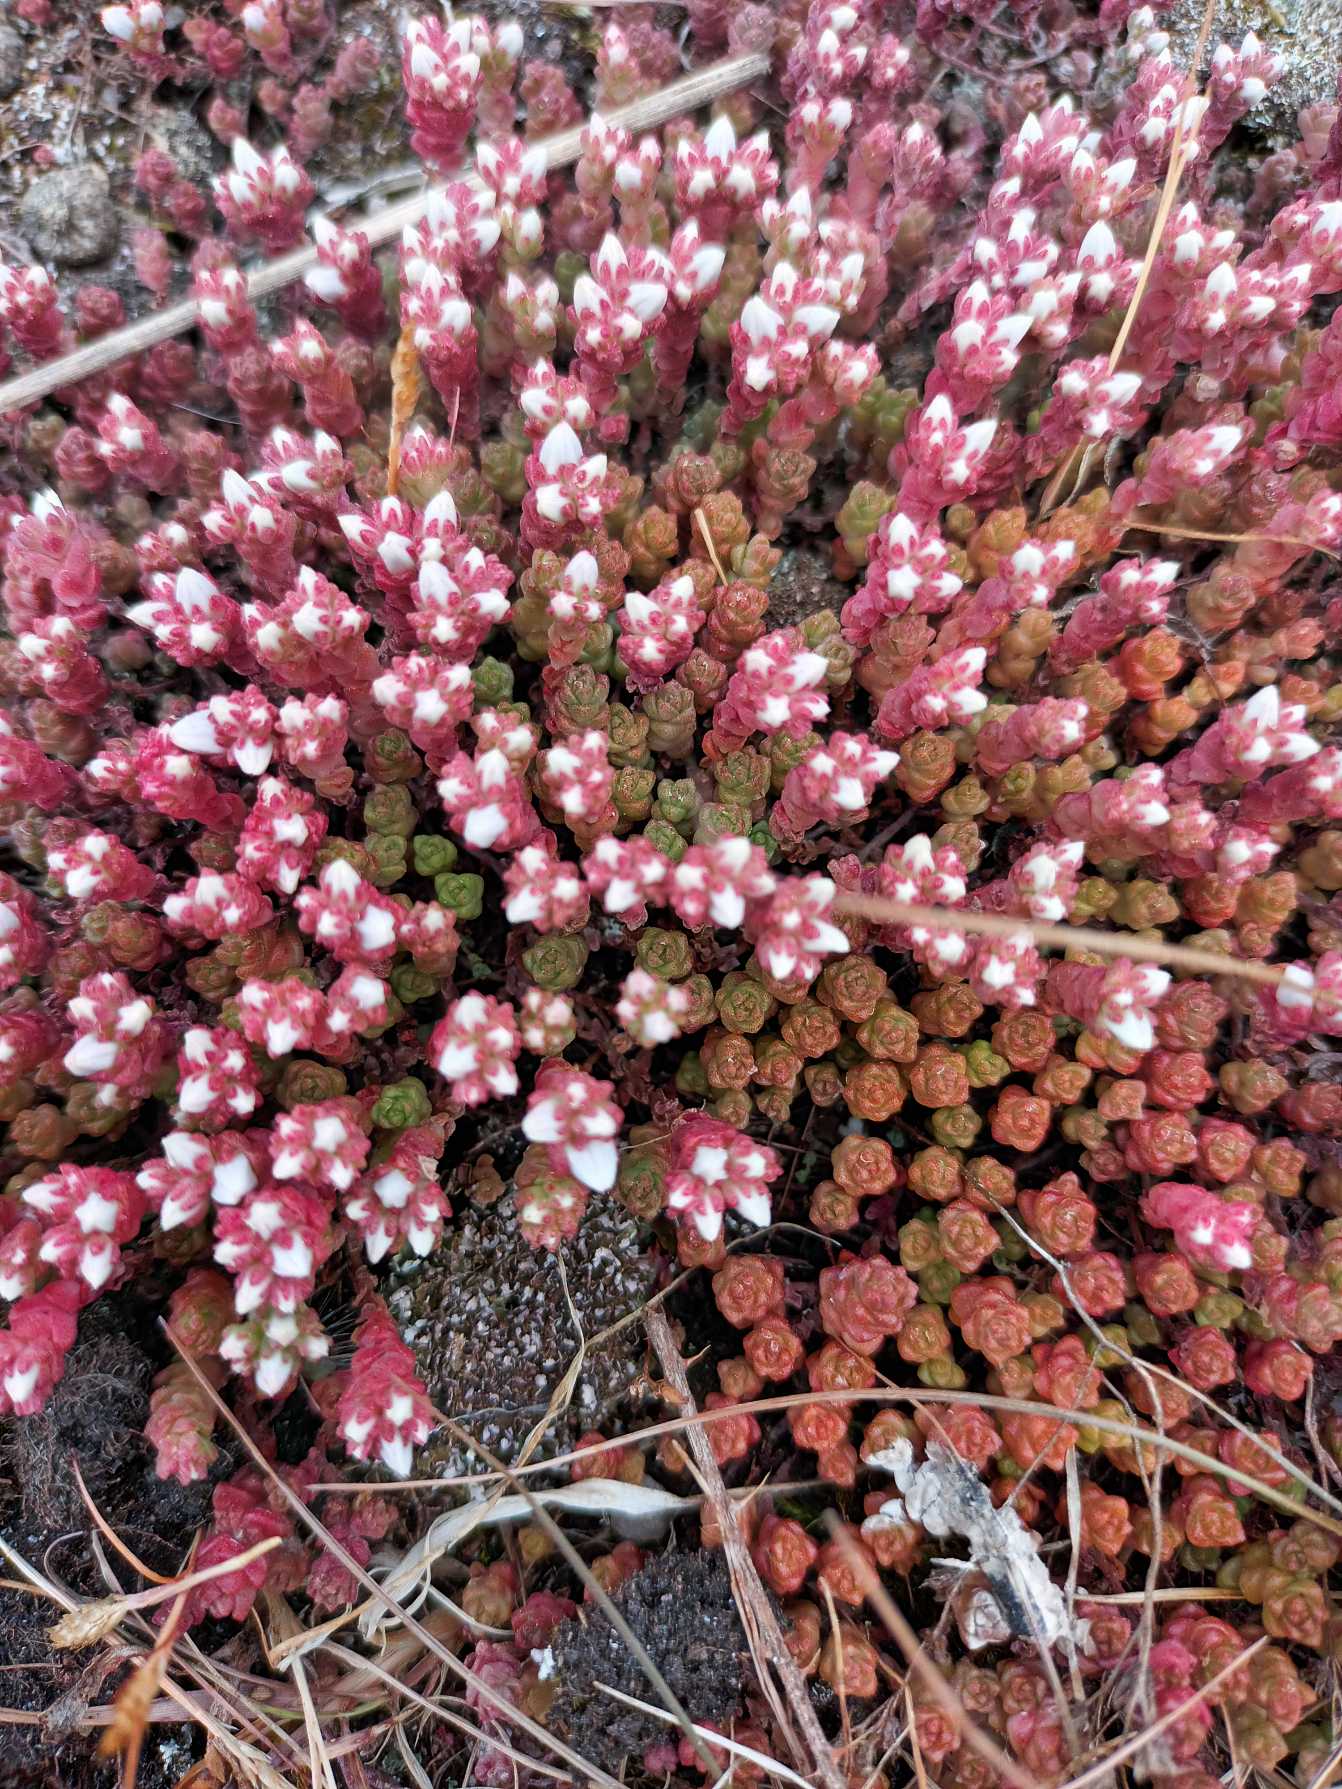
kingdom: Plantae
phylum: Tracheophyta
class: Magnoliopsida
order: Saxifragales
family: Crassulaceae
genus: Sedum
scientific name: Sedum anglicum
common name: Engelsk stenurt
